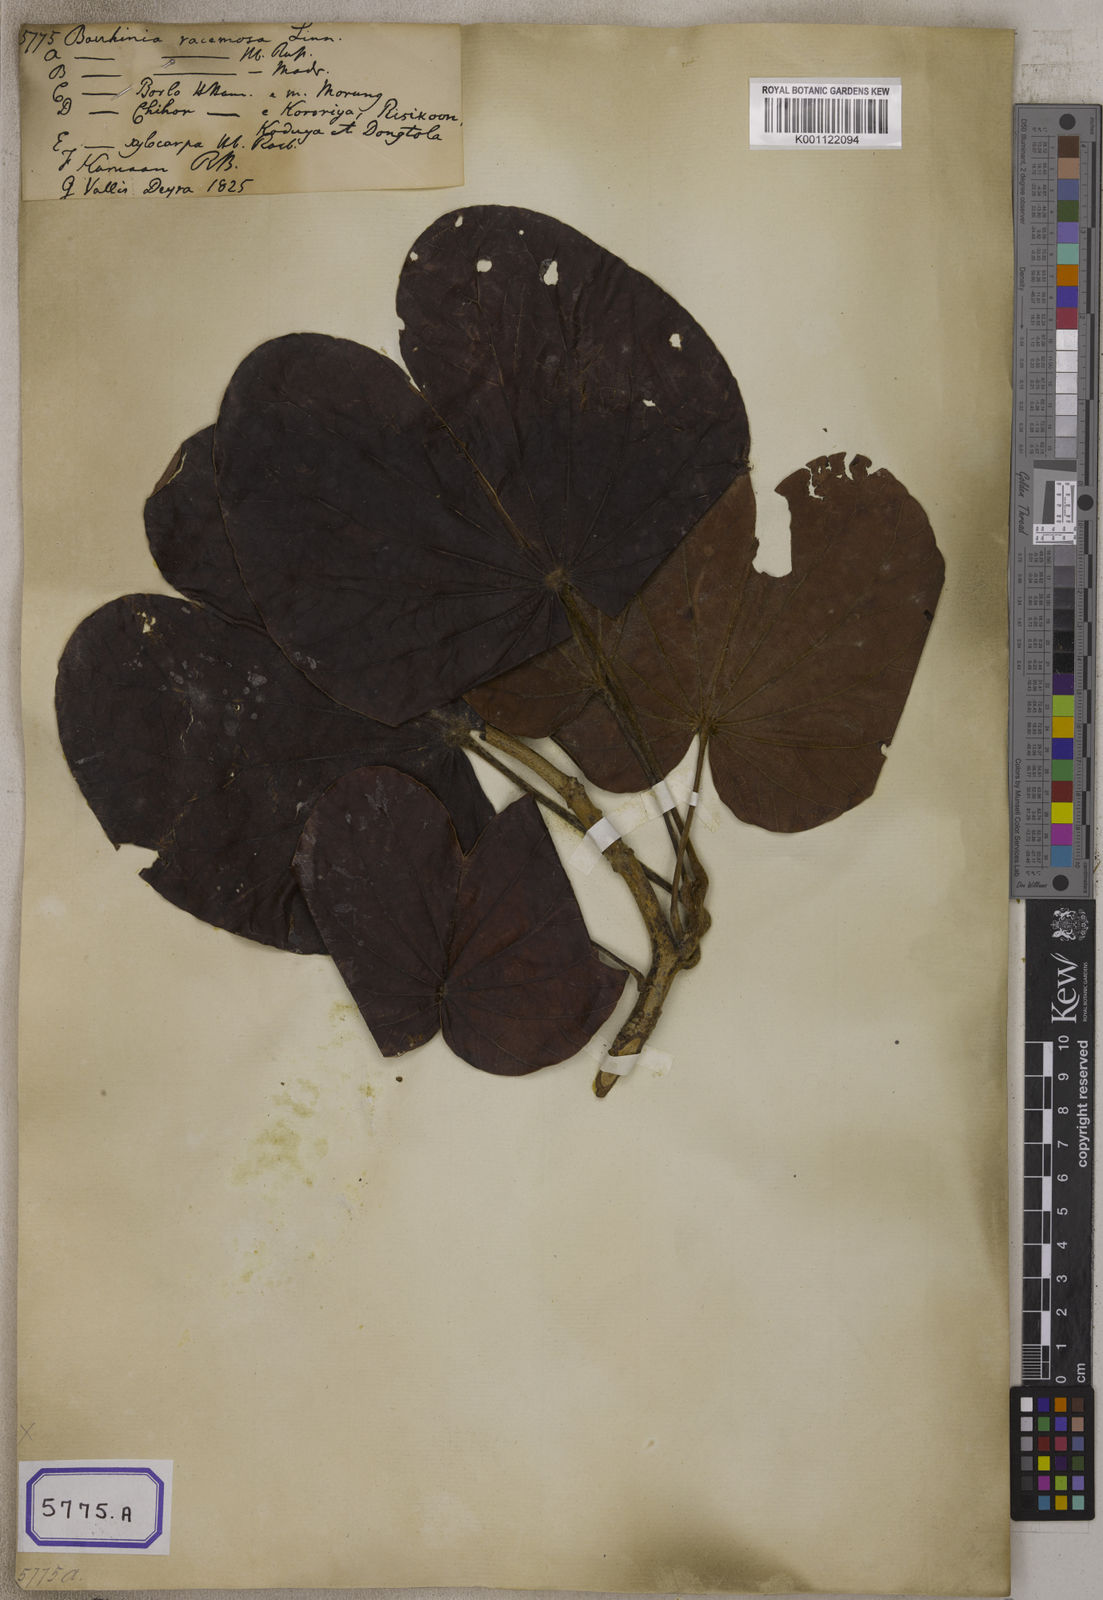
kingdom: Plantae
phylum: Tracheophyta
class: Magnoliopsida
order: Fabales
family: Fabaceae
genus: Bauhinia
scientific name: Bauhinia
